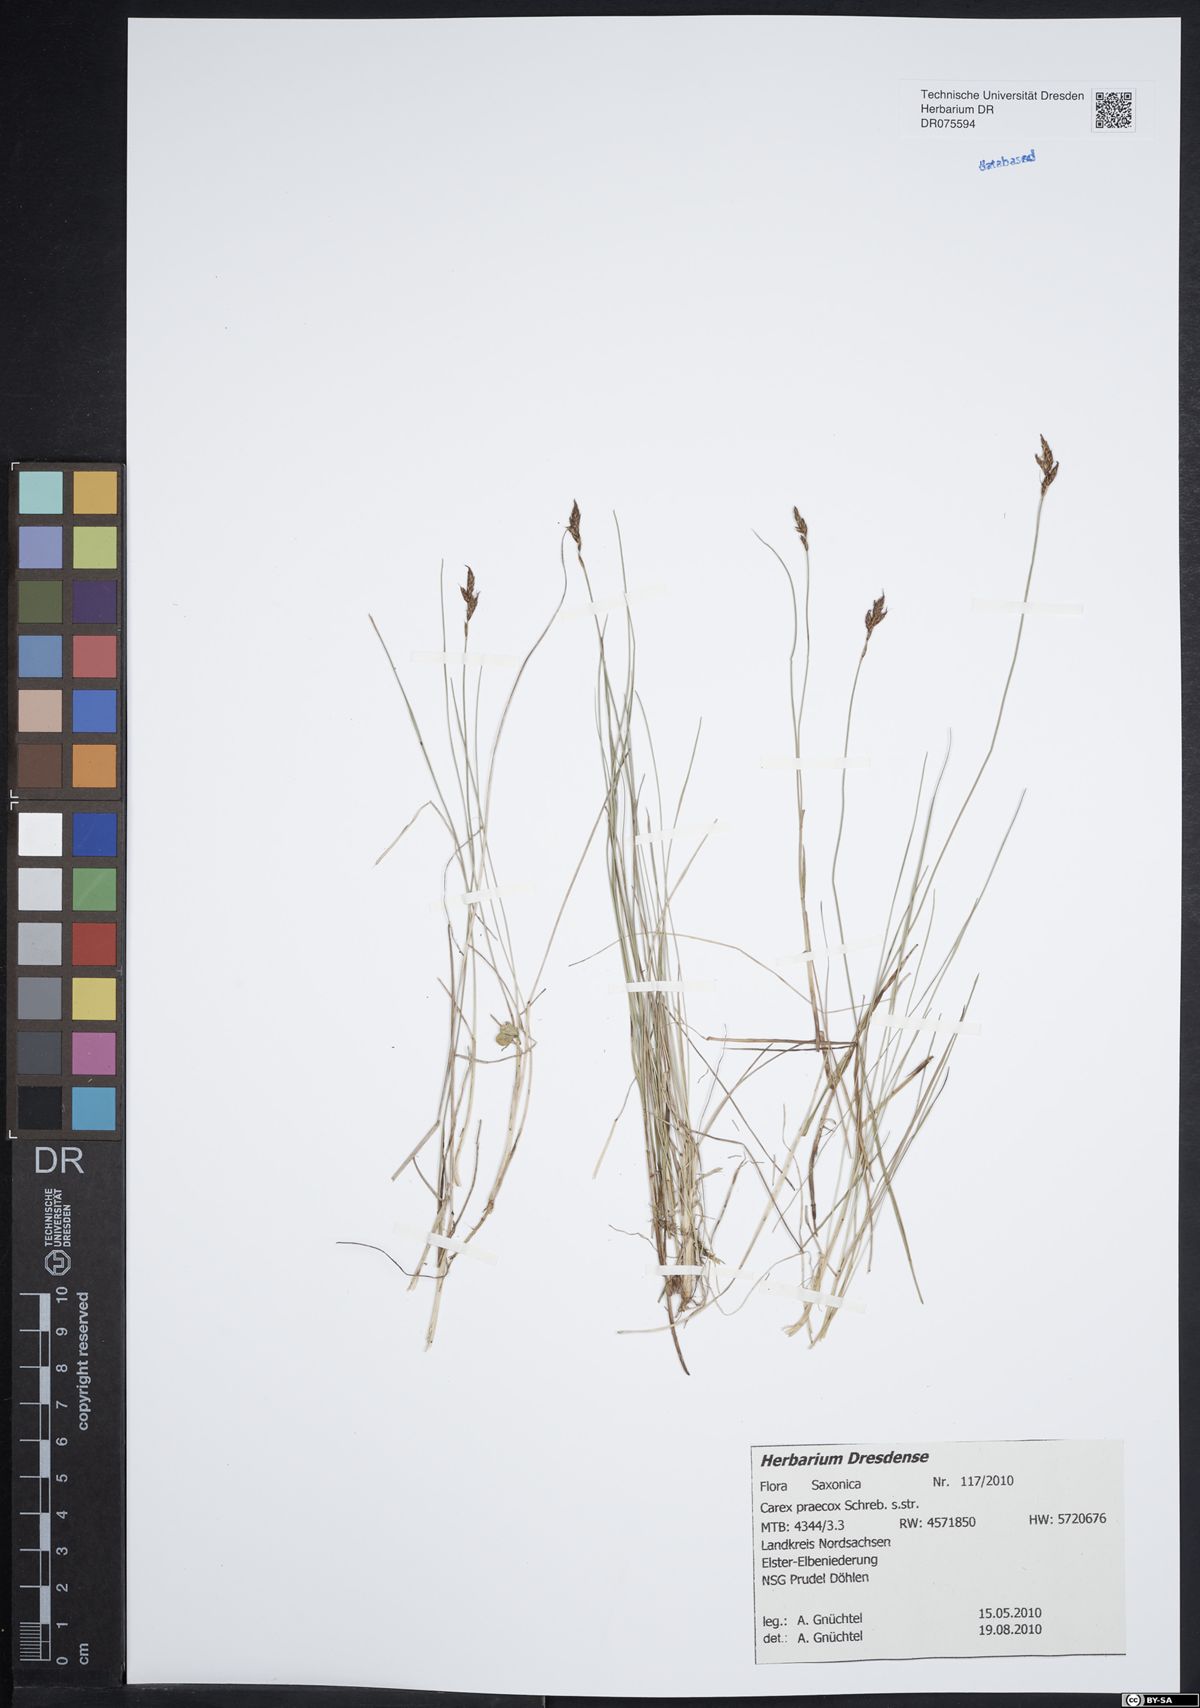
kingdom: Plantae
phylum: Tracheophyta
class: Liliopsida
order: Poales
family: Cyperaceae
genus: Carex
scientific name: Carex praecox
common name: Early sedge
